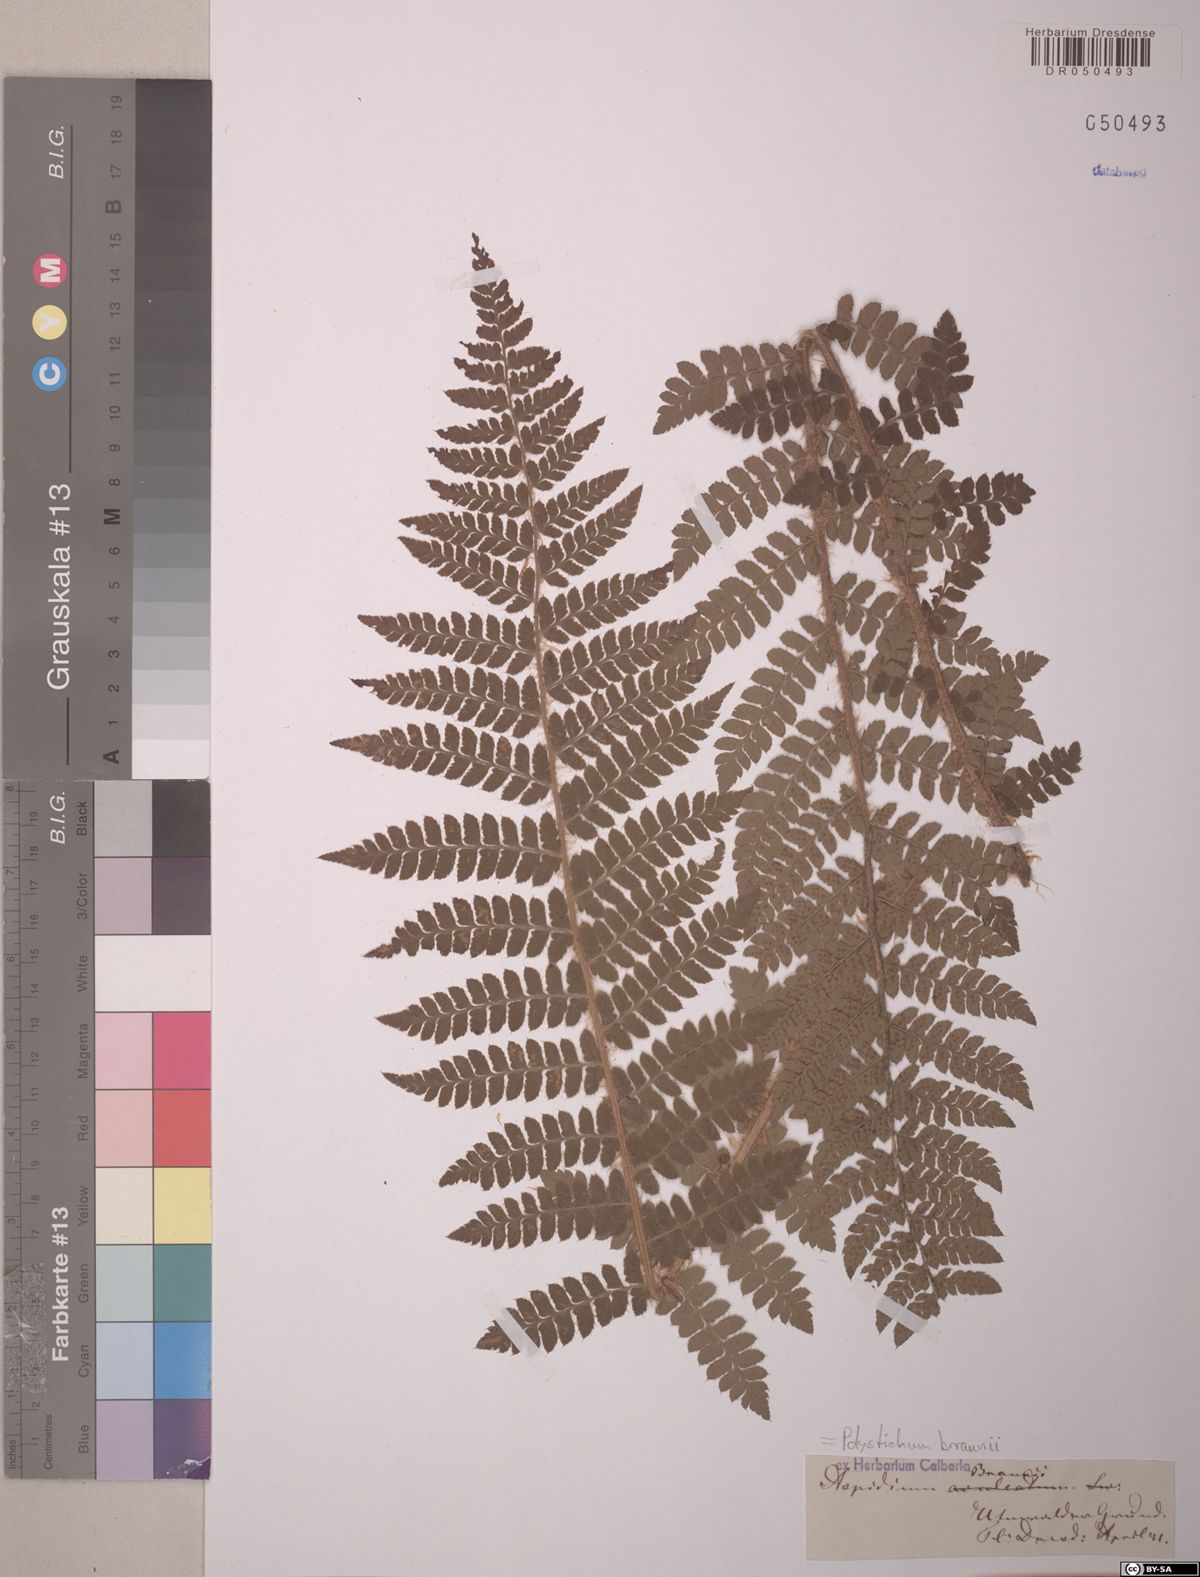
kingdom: Plantae
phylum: Tracheophyta
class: Polypodiopsida
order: Polypodiales
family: Dryopteridaceae
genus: Polystichum
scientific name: Polystichum braunii
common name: Braun's holly fern
